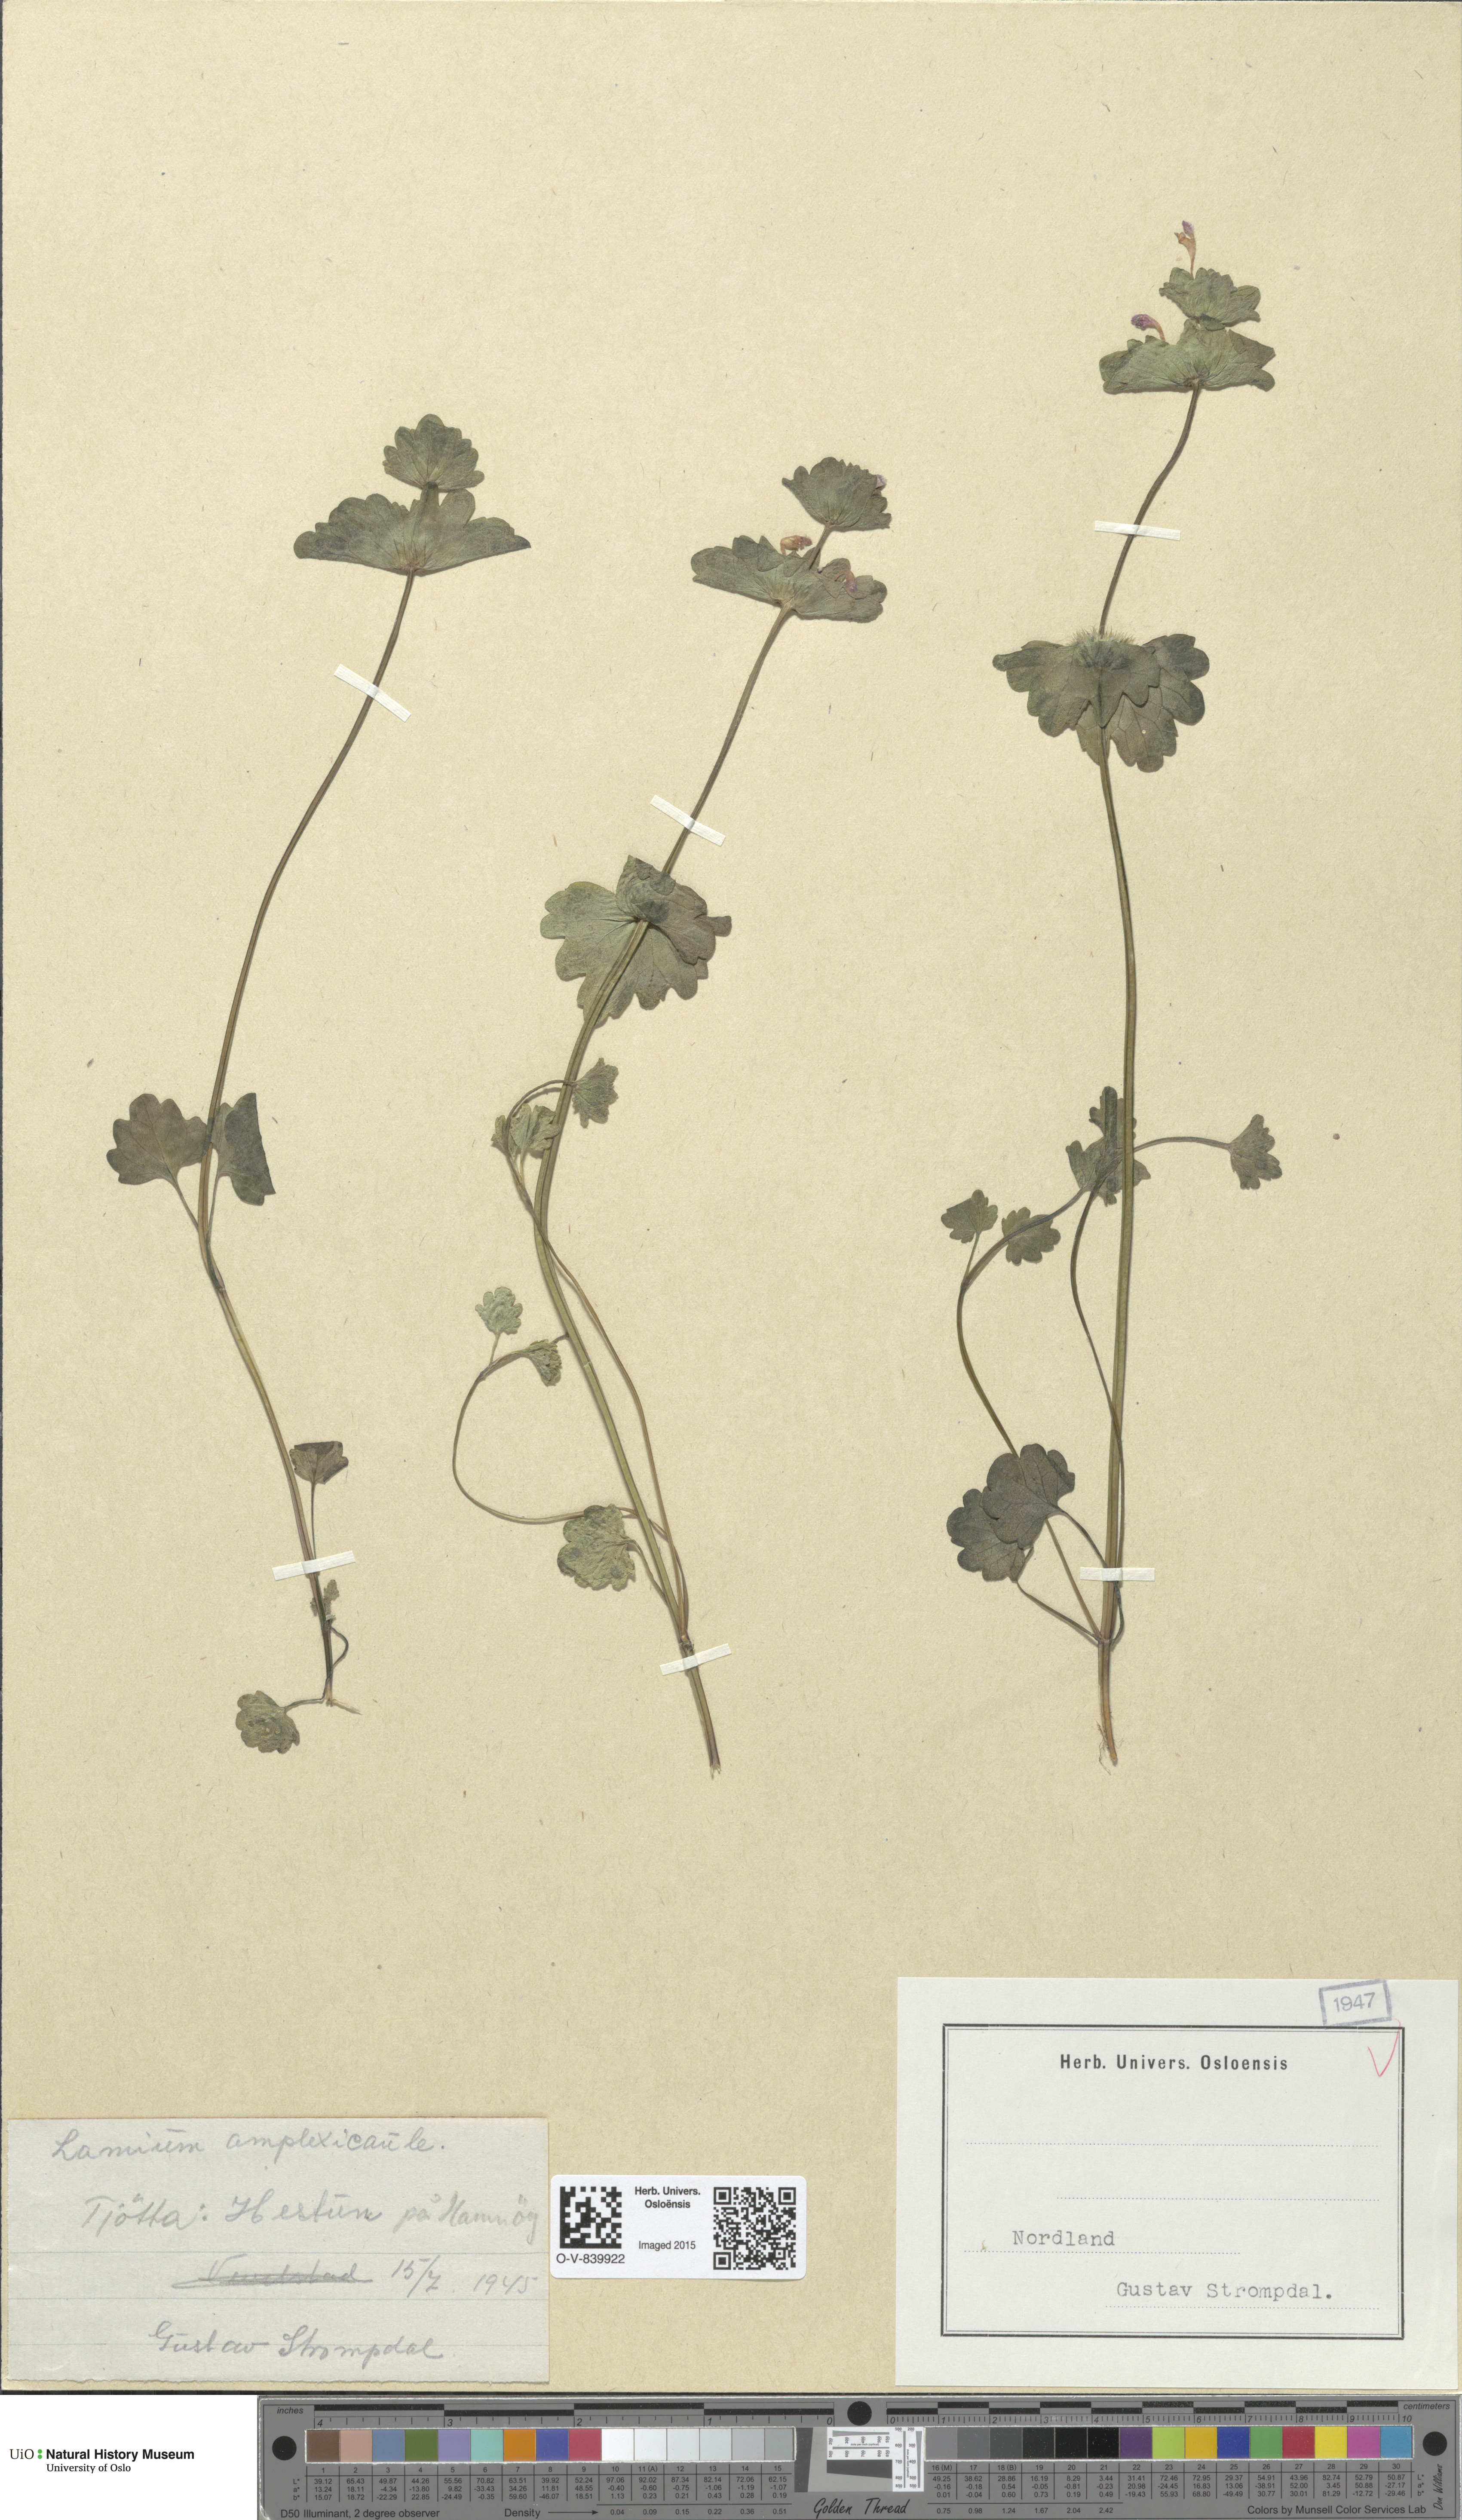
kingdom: Plantae
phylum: Tracheophyta
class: Magnoliopsida
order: Lamiales
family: Lamiaceae
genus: Lamium
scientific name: Lamium amplexicaule
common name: Henbit dead-nettle
